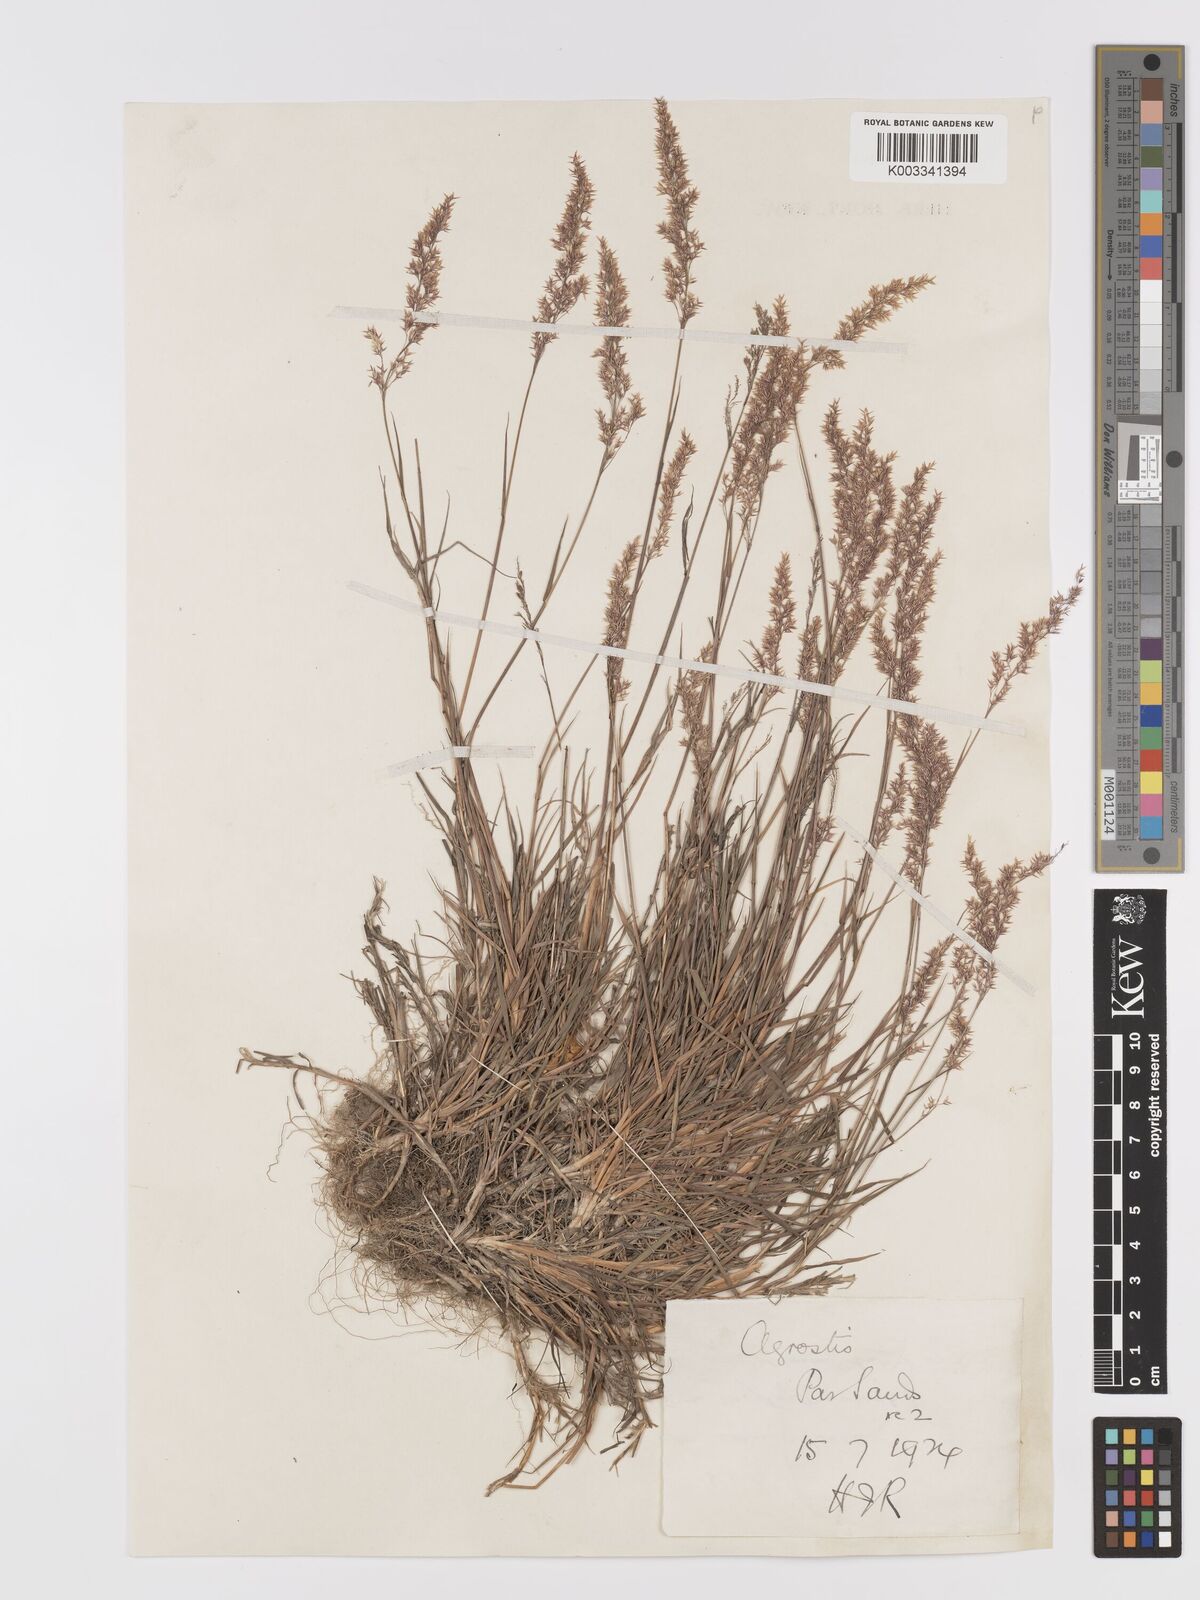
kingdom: Plantae
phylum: Tracheophyta
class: Liliopsida
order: Poales
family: Poaceae
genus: Agrostis
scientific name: Agrostis stolonifera
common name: Creeping bentgrass
